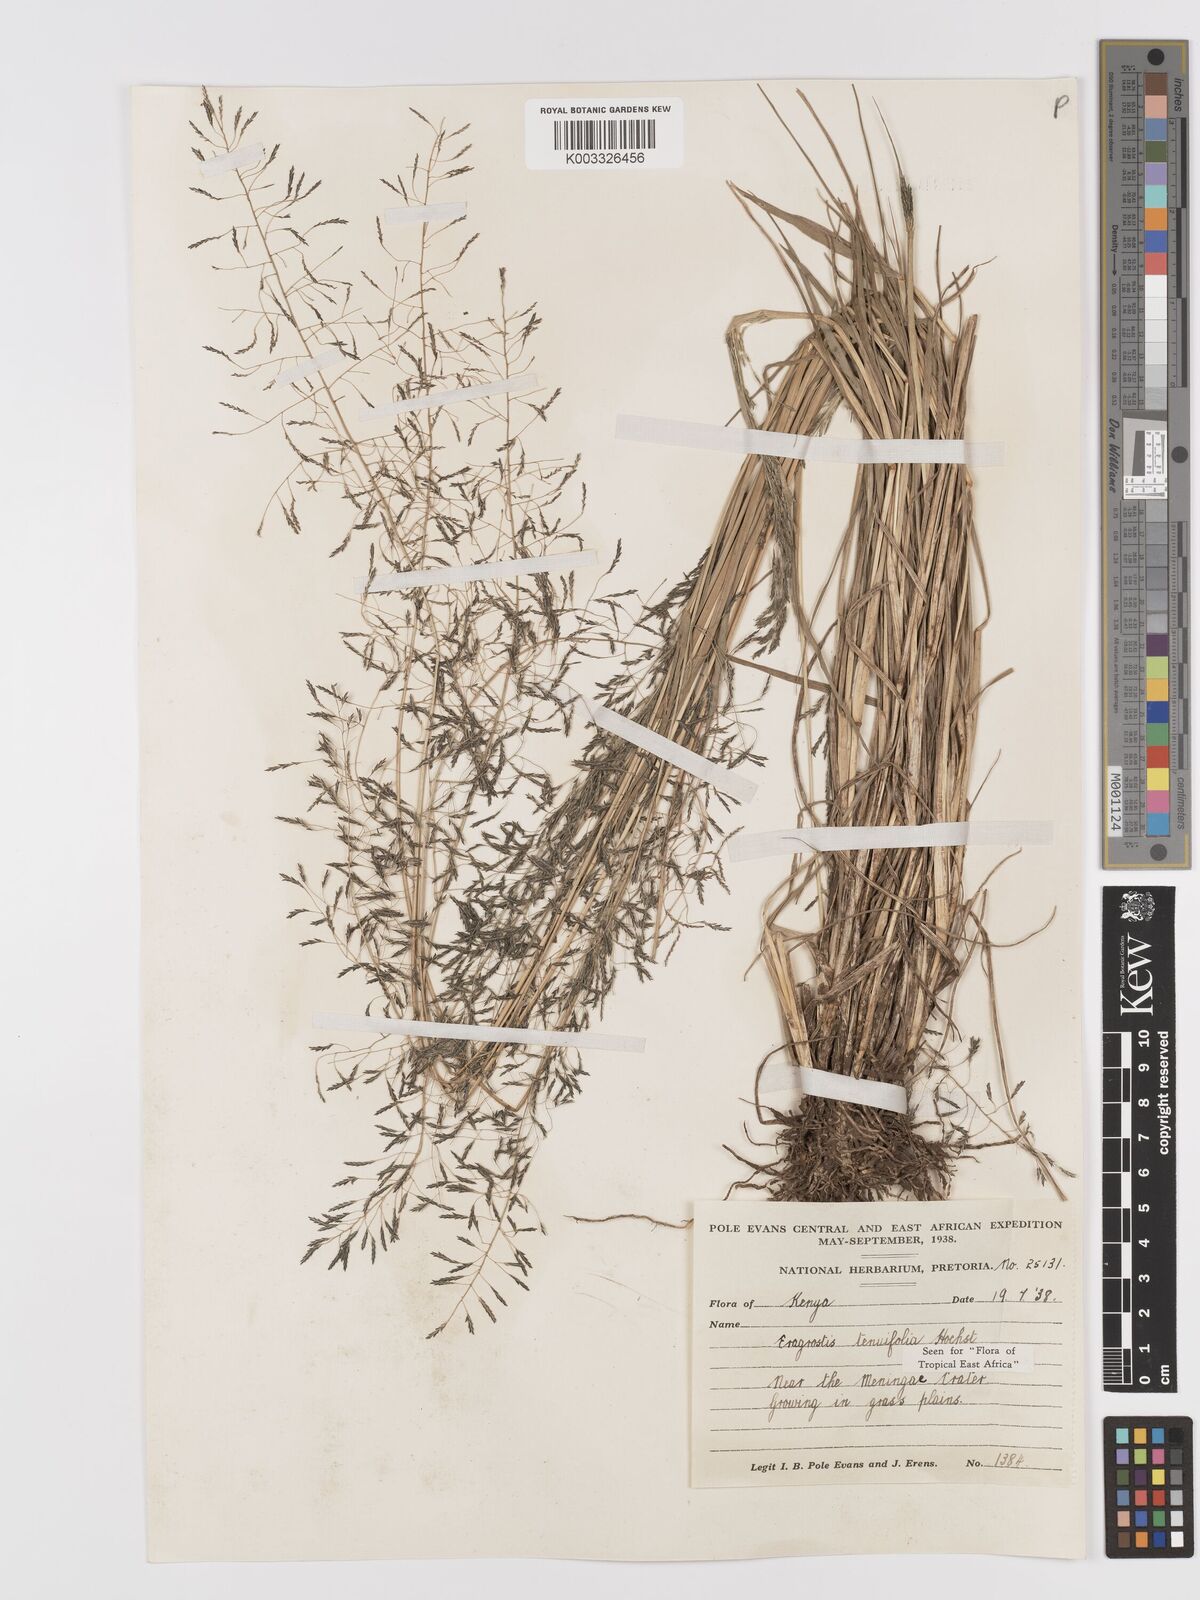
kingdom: Plantae
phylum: Tracheophyta
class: Liliopsida
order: Poales
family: Poaceae
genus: Eragrostis
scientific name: Eragrostis tenuifolia
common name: Elastic grass
